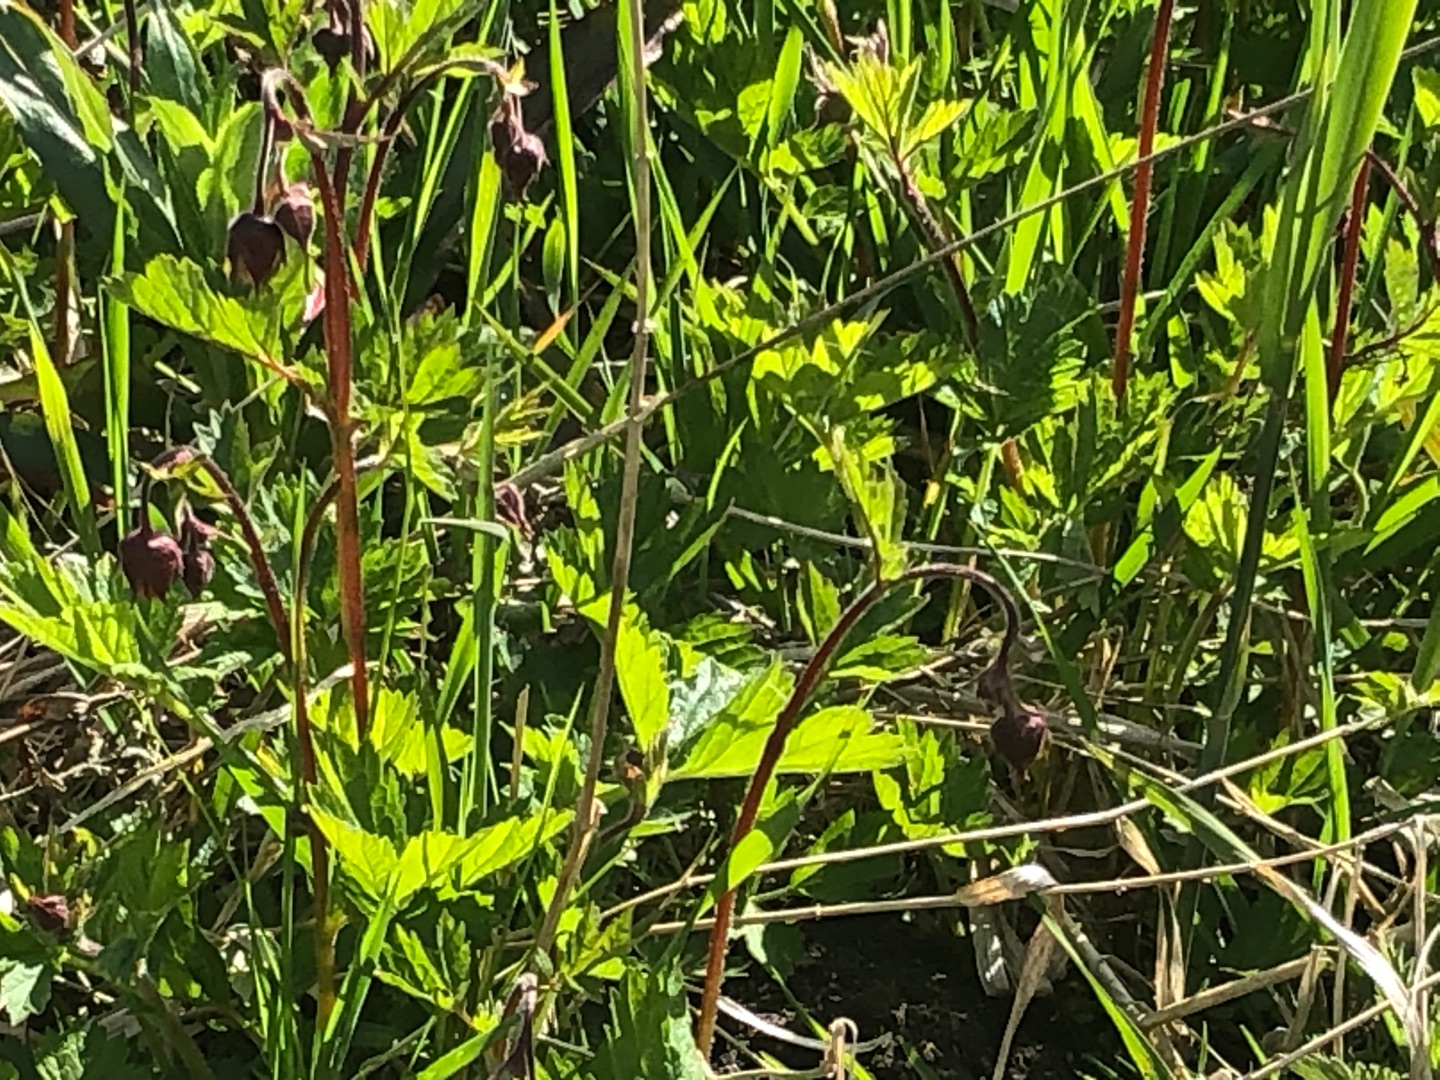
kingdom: Plantae
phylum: Tracheophyta
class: Magnoliopsida
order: Rosales
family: Rosaceae
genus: Geum
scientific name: Geum rivale
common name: Eng-nellikerod
